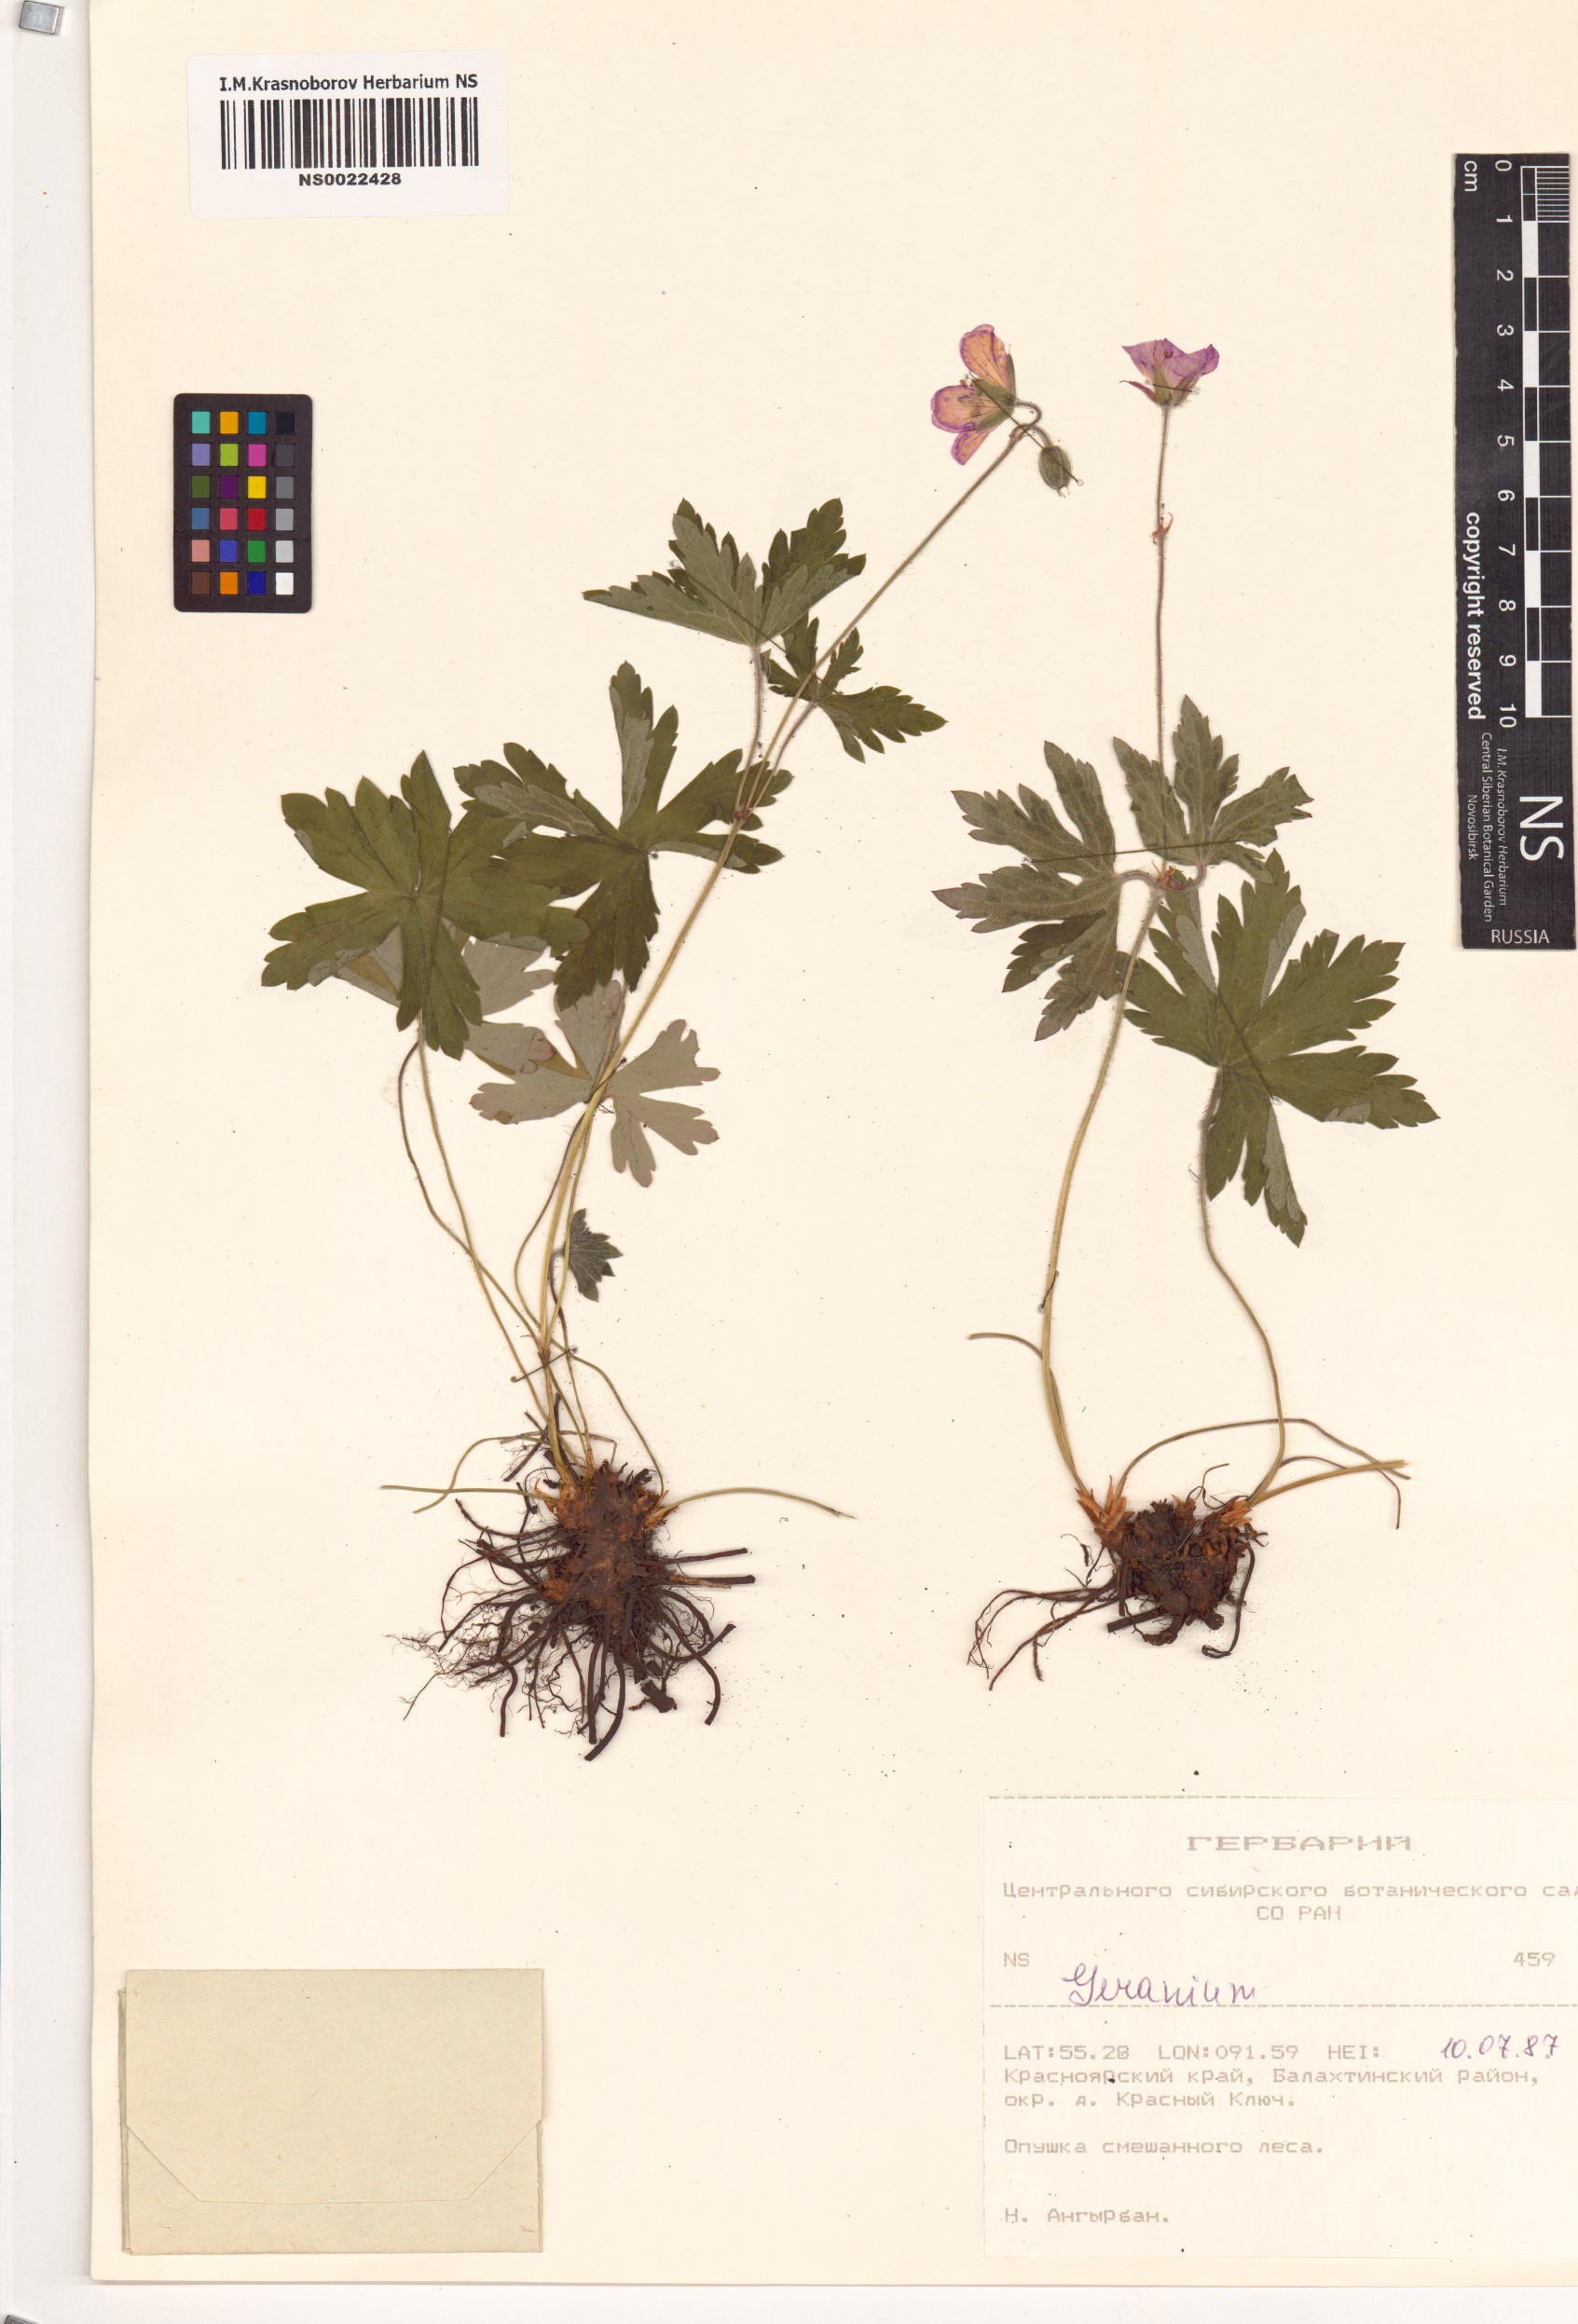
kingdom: Plantae
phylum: Tracheophyta
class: Magnoliopsida
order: Geraniales
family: Geraniaceae
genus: Geranium
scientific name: Geranium
